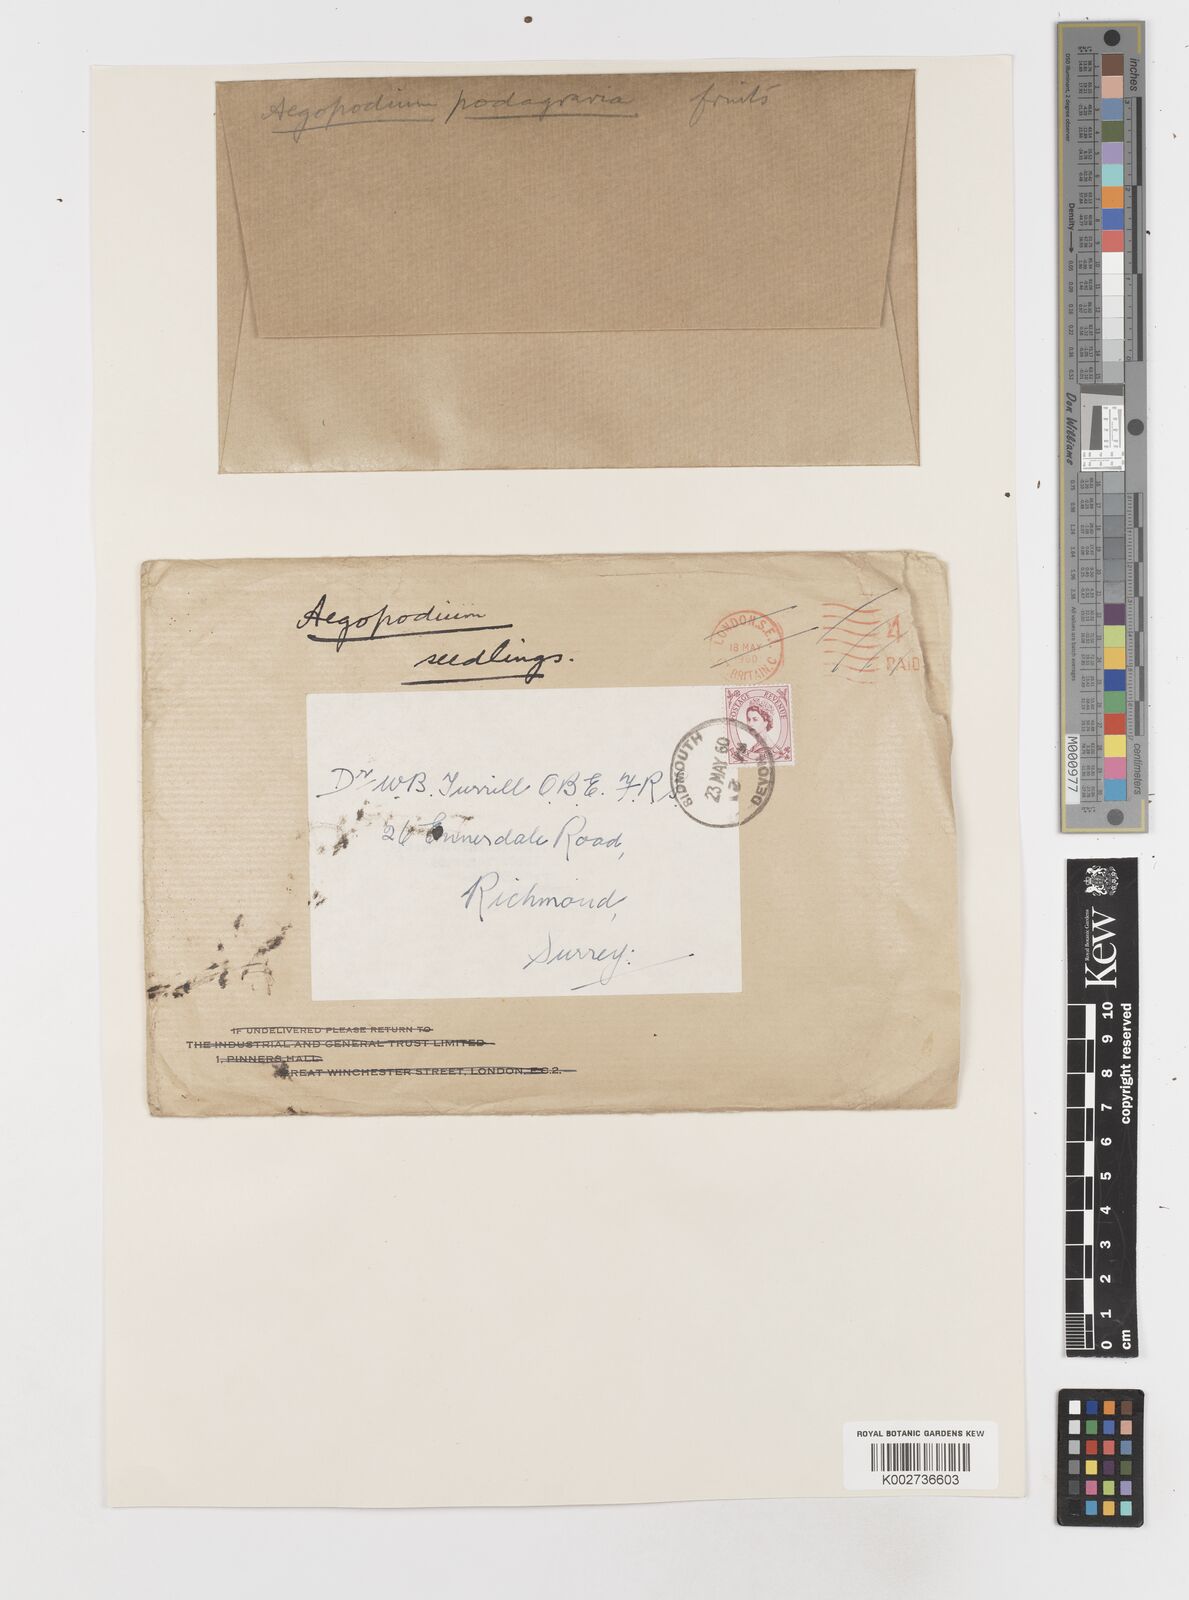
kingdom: Plantae
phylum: Tracheophyta
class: Magnoliopsida
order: Apiales
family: Apiaceae
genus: Aegopodium
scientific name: Aegopodium podagraria
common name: Ground-elder
